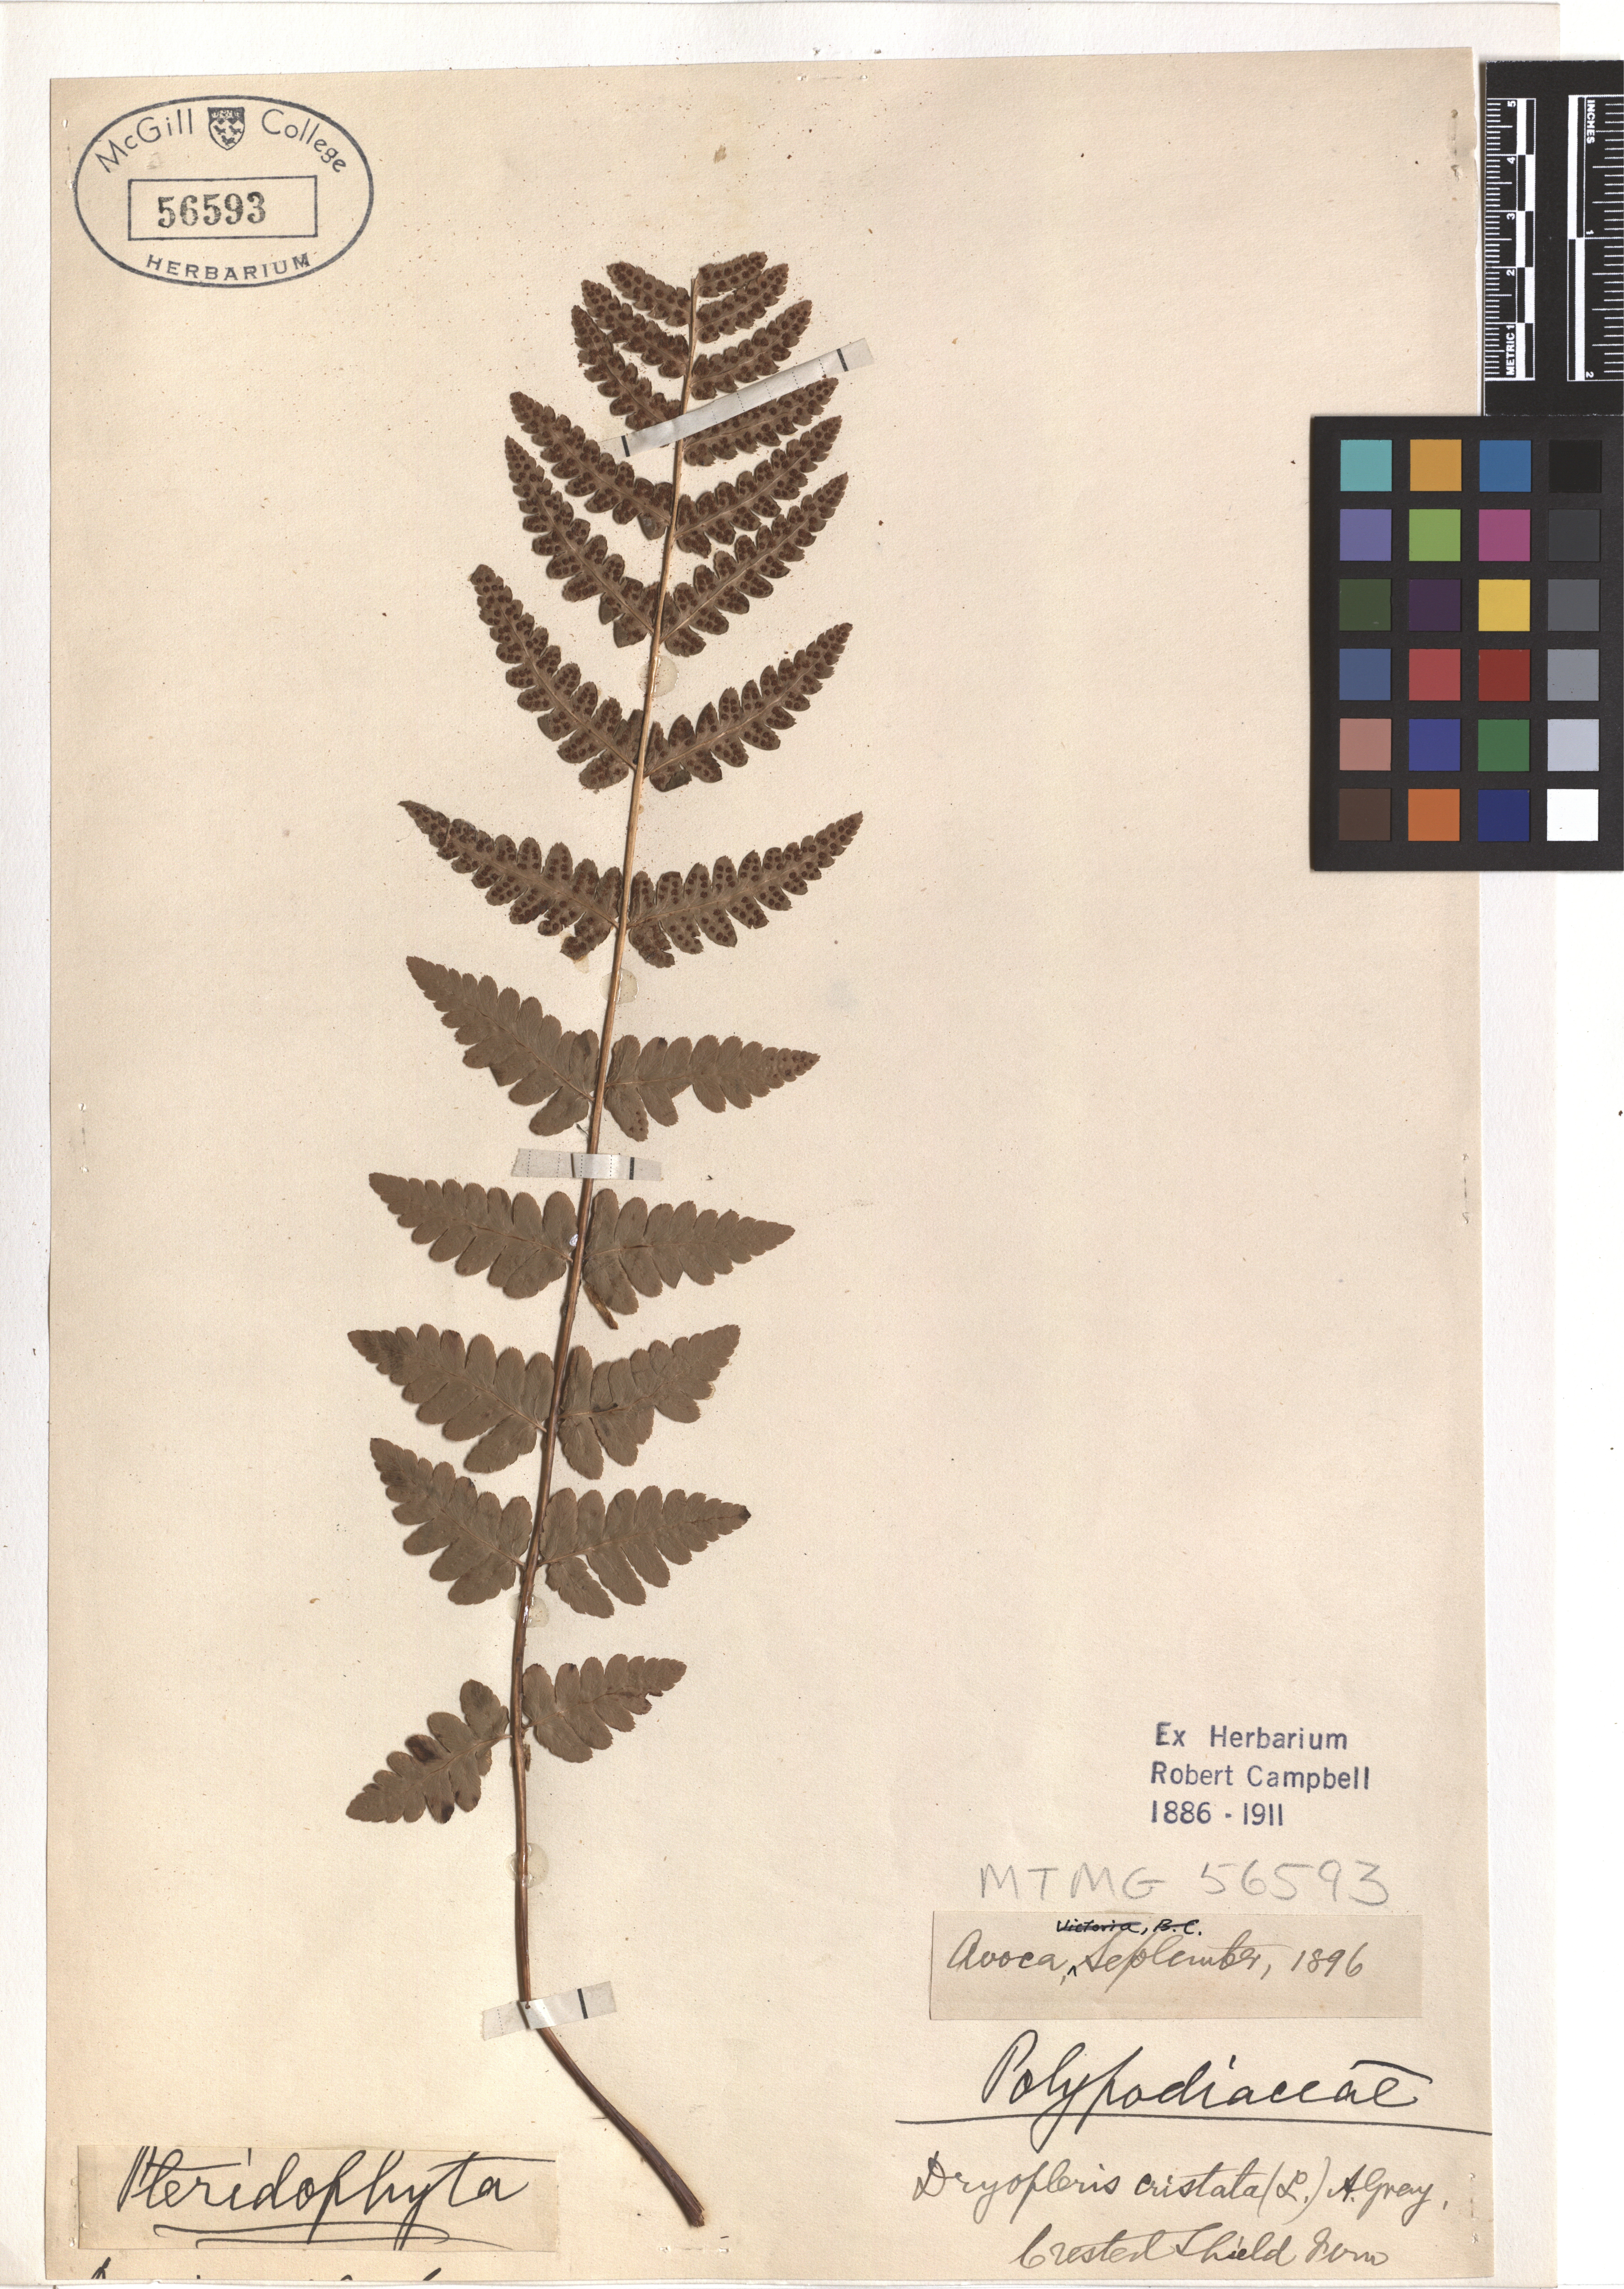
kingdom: Plantae
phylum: Tracheophyta
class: Polypodiopsida
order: Polypodiales
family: Dryopteridaceae
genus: Dryopteris
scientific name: Dryopteris cristata
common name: Crested wood fern
